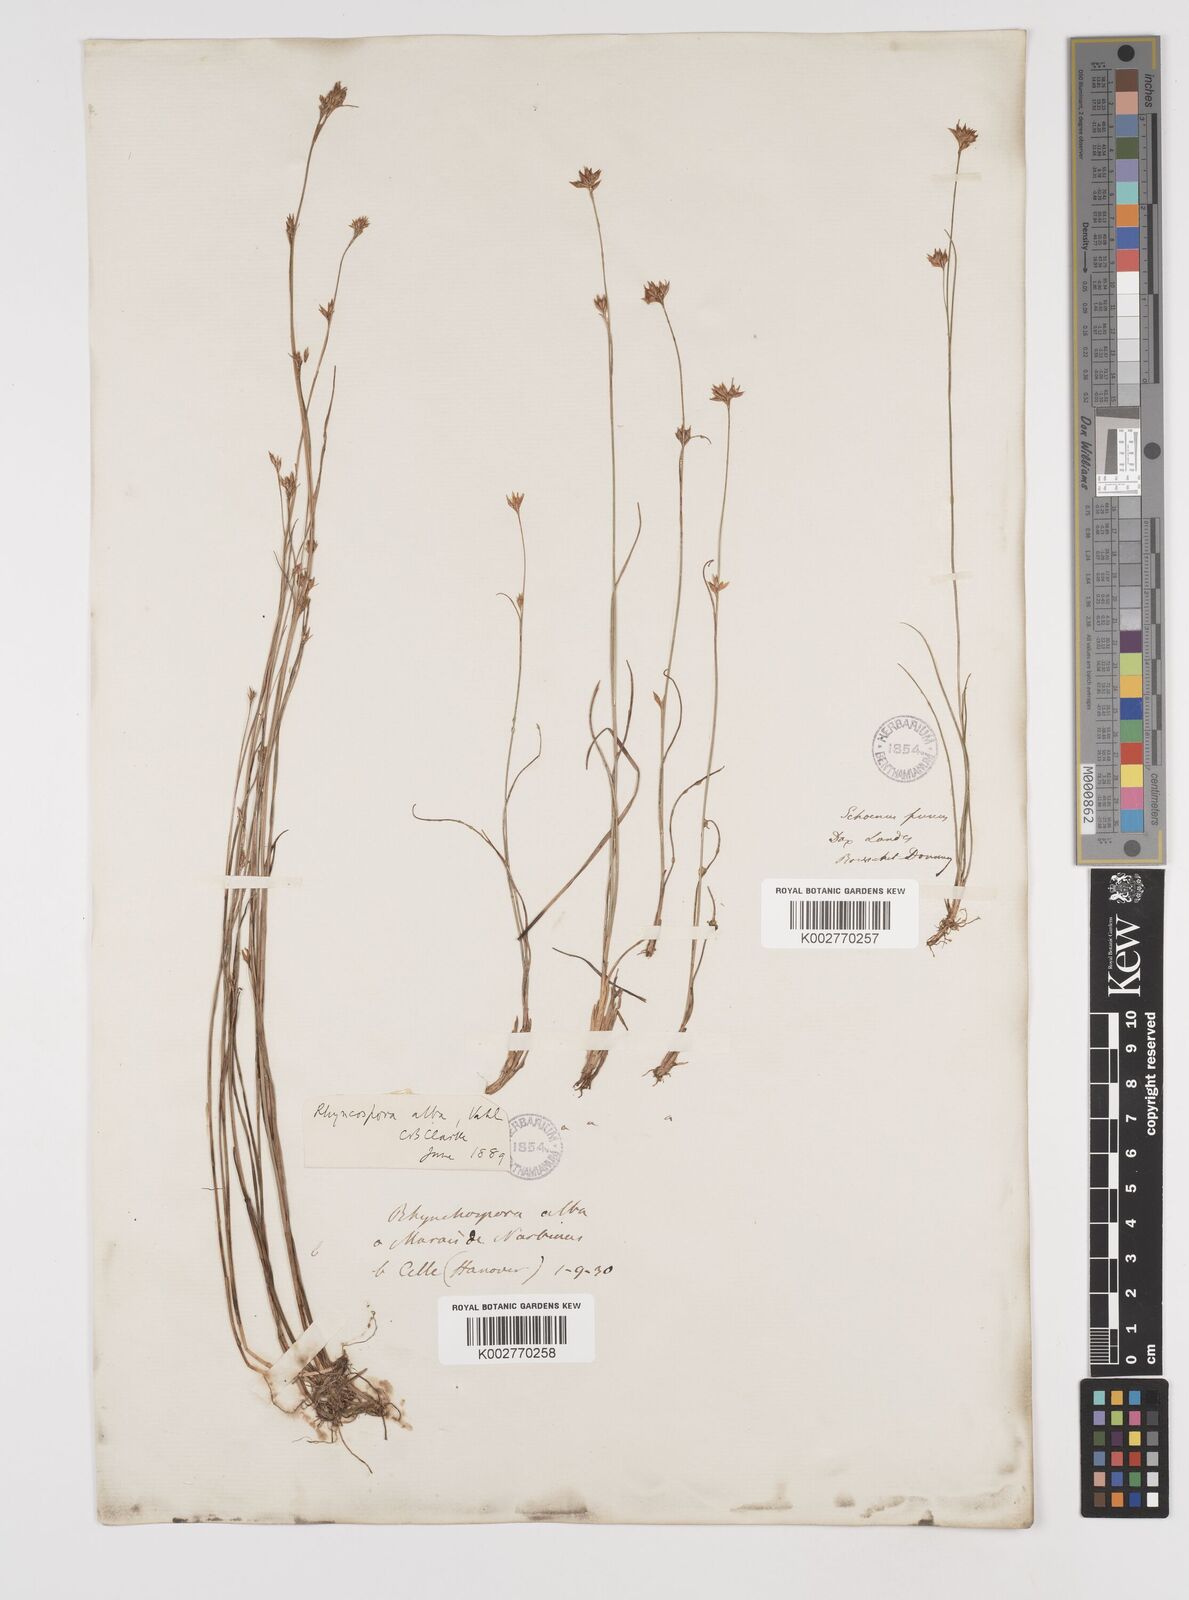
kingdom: Plantae
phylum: Tracheophyta
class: Liliopsida
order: Poales
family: Cyperaceae
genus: Rhynchospora
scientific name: Rhynchospora alba
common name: White beak-sedge
